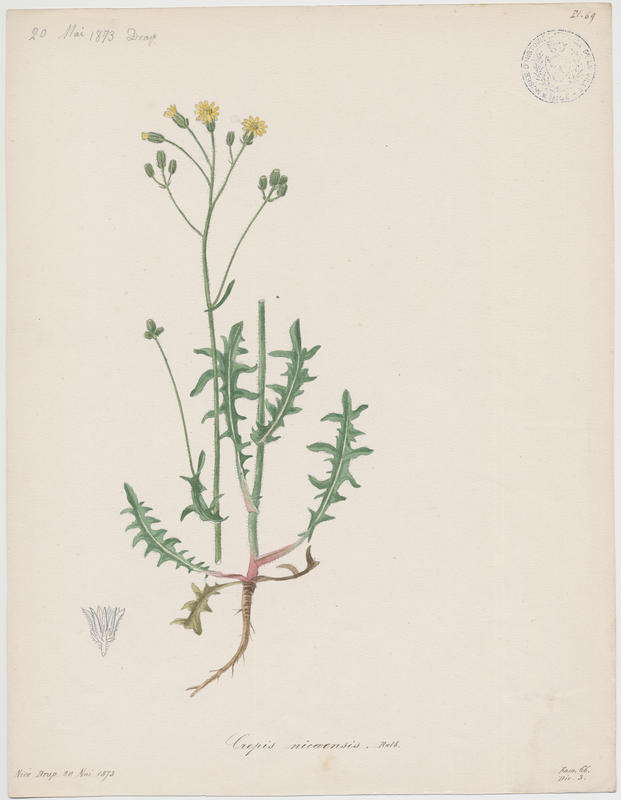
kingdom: Plantae
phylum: Tracheophyta
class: Magnoliopsida
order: Asterales
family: Asteraceae
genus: Crepis
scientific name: Crepis nicaeensis
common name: Turkish hawksbeard
